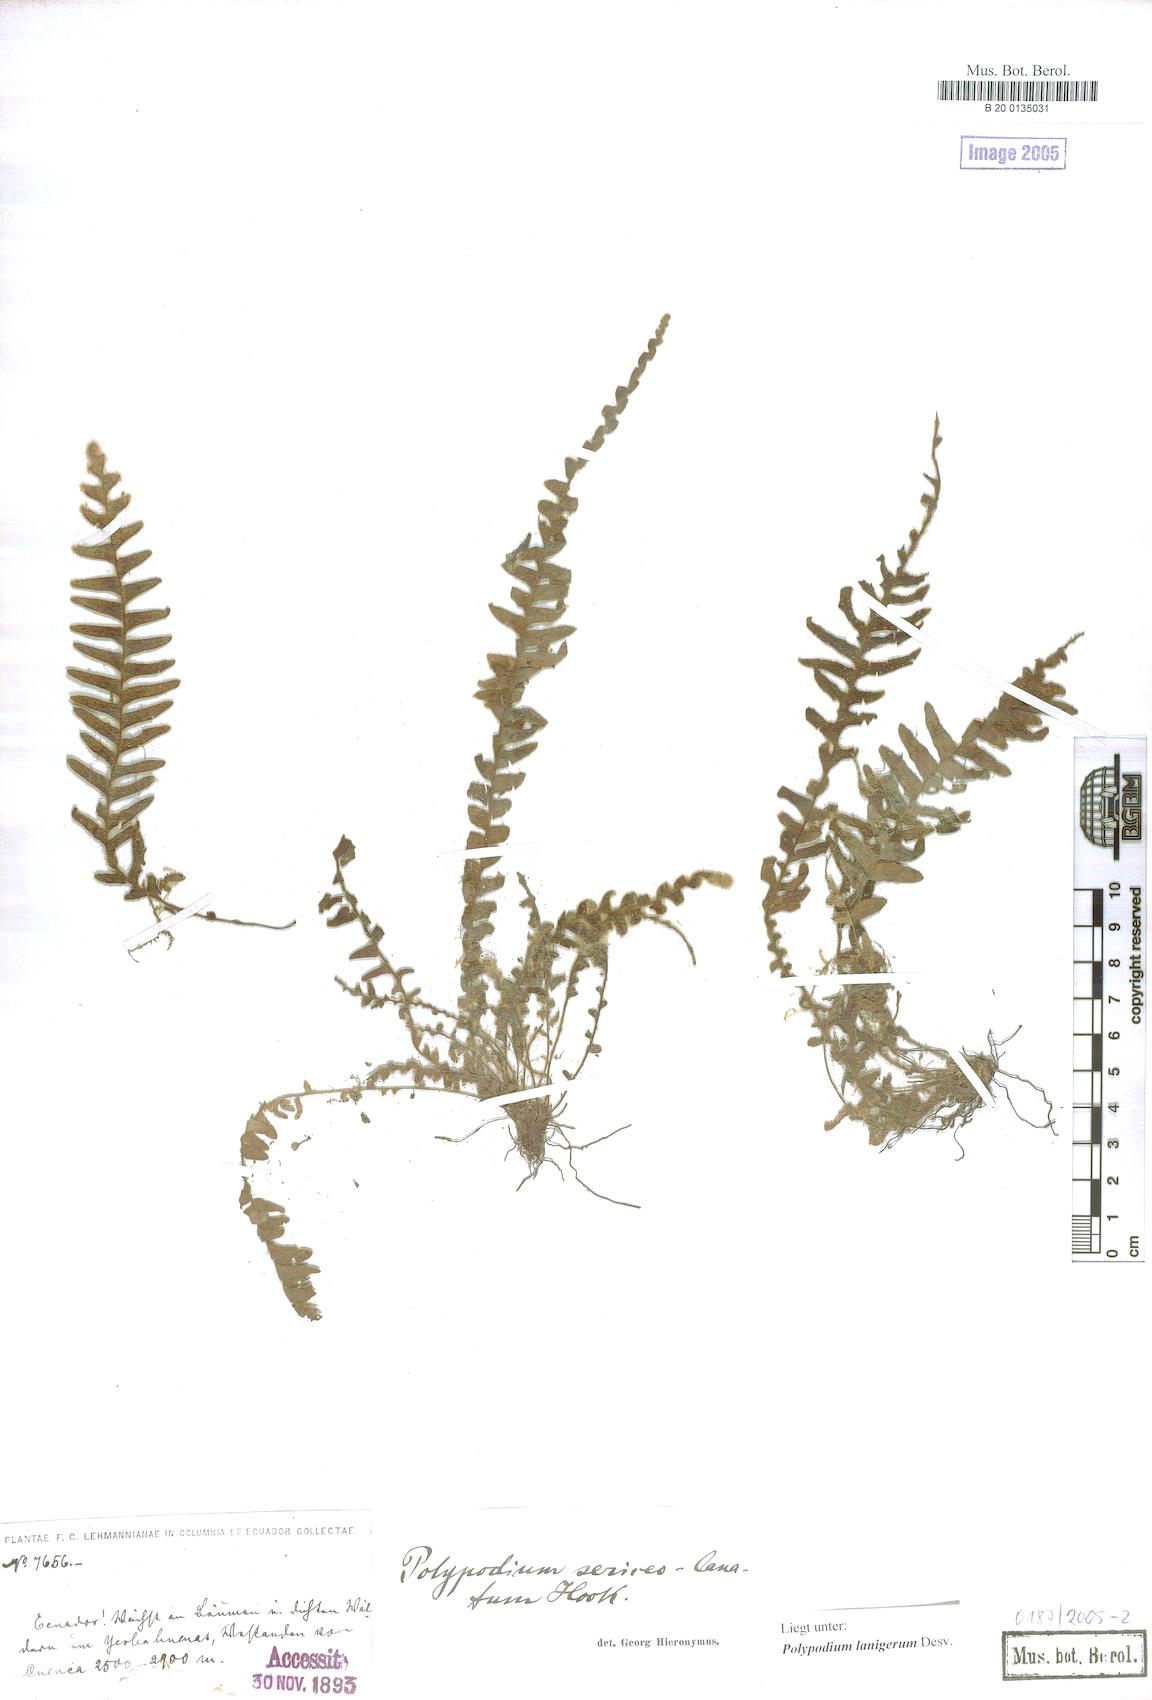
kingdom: Plantae
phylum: Tracheophyta
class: Polypodiopsida
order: Polypodiales
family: Polypodiaceae
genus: Alansmia
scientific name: Alansmia lanigera
